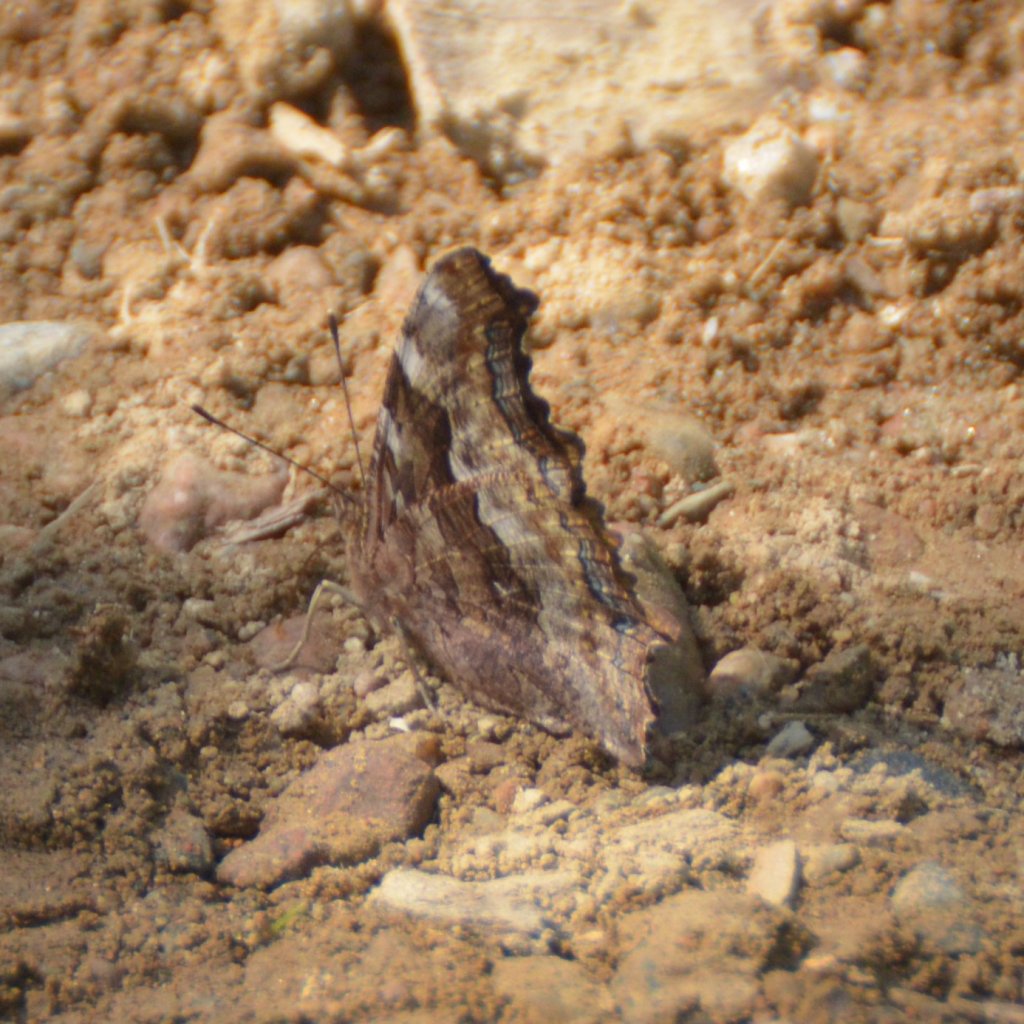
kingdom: Animalia
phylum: Arthropoda
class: Insecta
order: Lepidoptera
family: Nymphalidae
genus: Polygonia
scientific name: Polygonia vaualbum
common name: Compton Tortoiseshell
